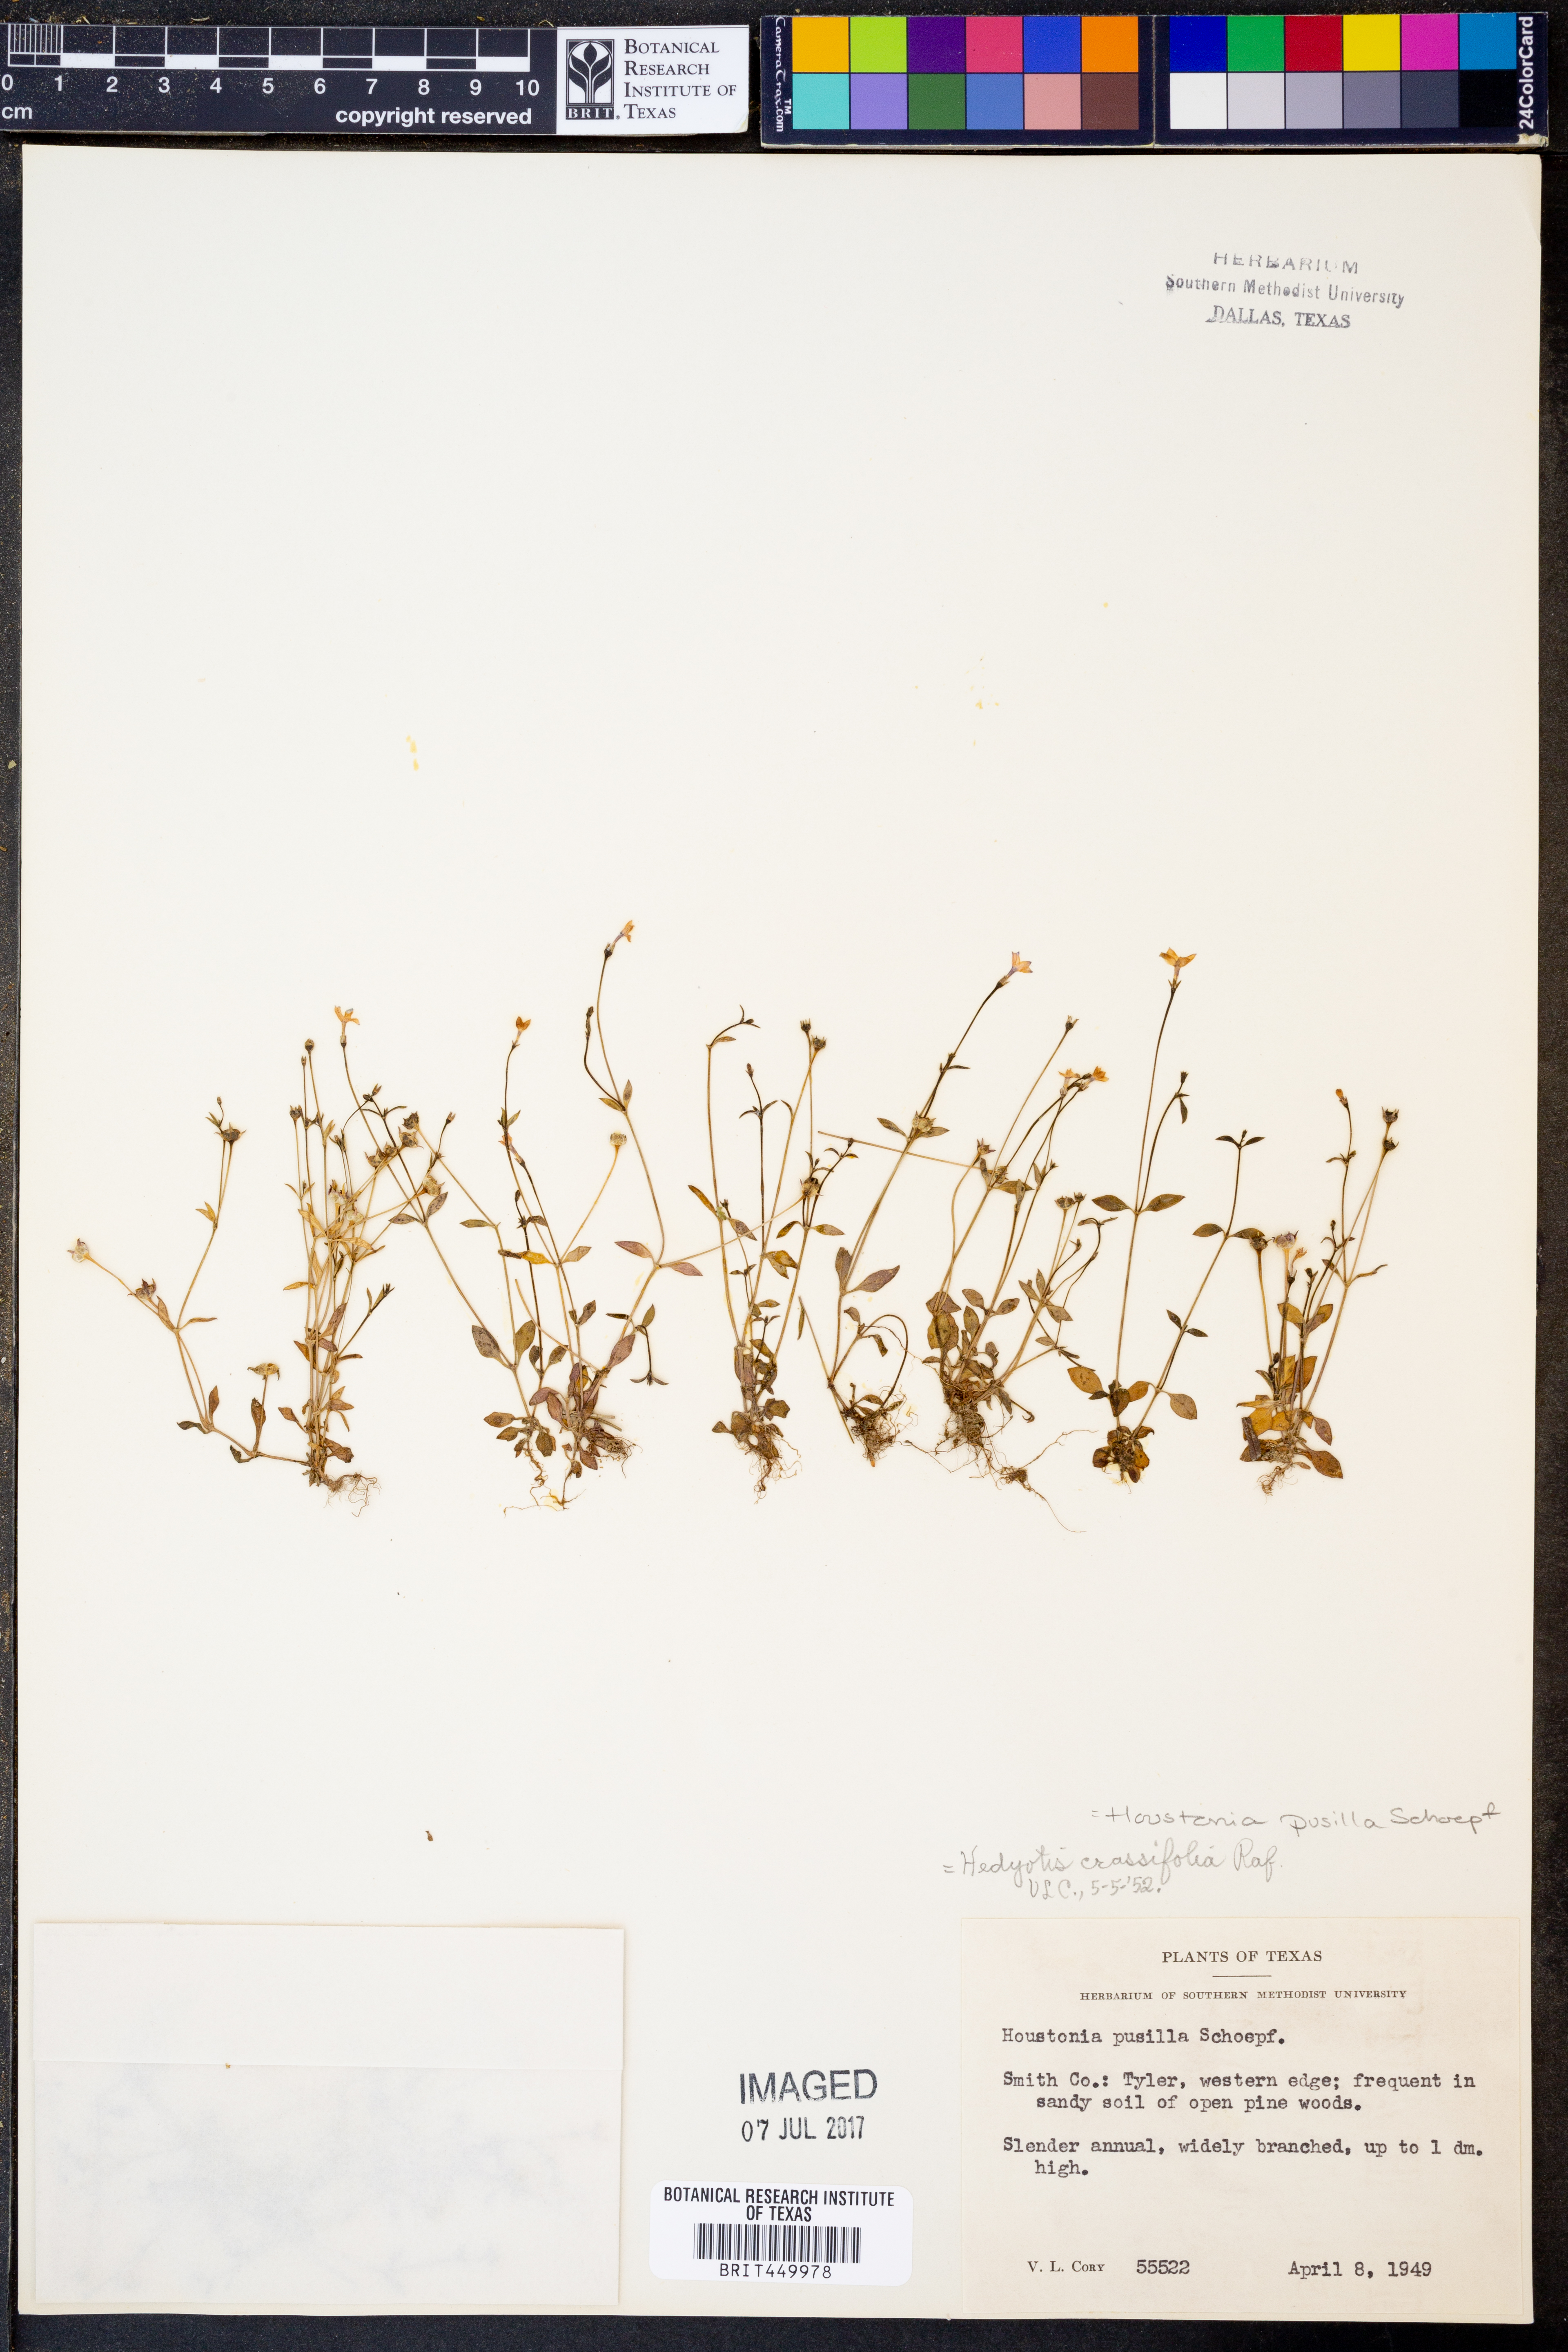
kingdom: Plantae
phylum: Tracheophyta
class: Magnoliopsida
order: Gentianales
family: Rubiaceae
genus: Houstonia
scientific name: Houstonia pusilla
